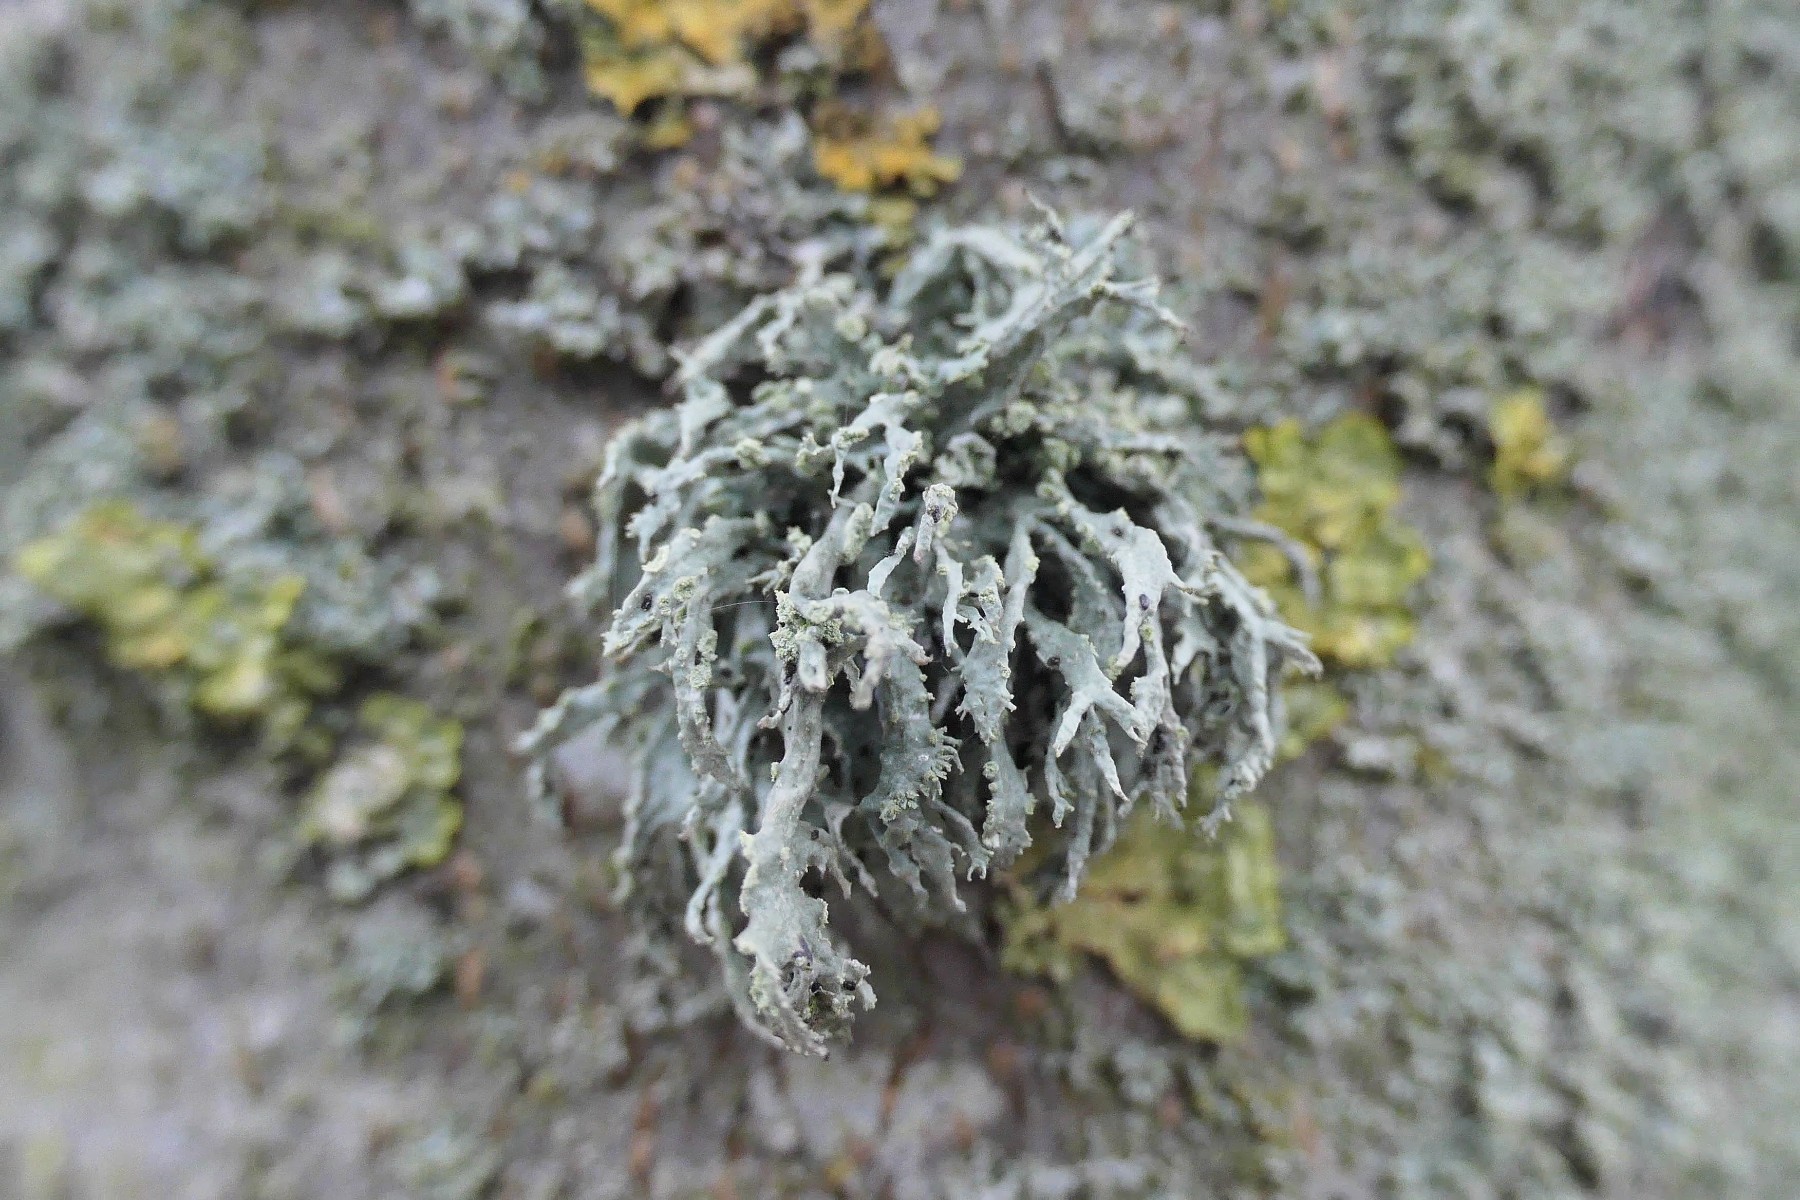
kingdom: Fungi
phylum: Ascomycota
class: Lecanoromycetes
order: Lecanorales
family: Ramalinaceae
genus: Ramalina
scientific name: Ramalina farinacea
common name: melet grenlav
